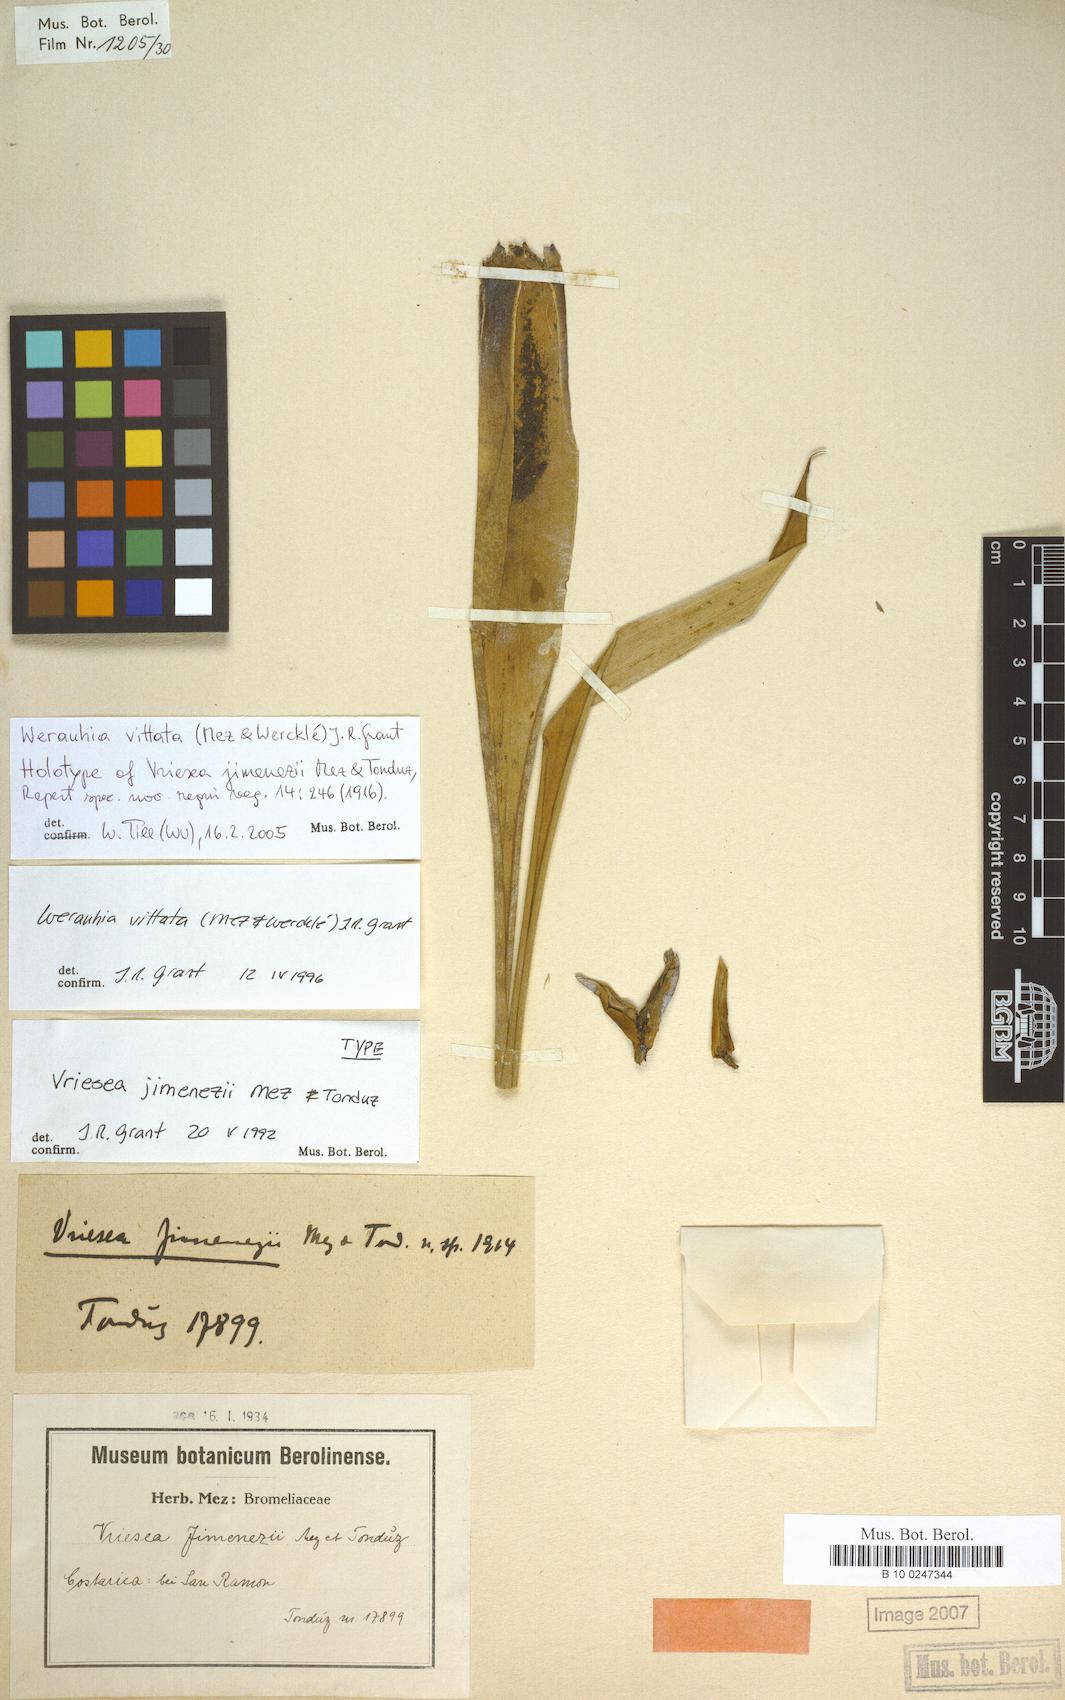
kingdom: Plantae
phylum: Tracheophyta
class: Liliopsida
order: Poales
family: Bromeliaceae
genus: Werauhia
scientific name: Werauhia vittata
